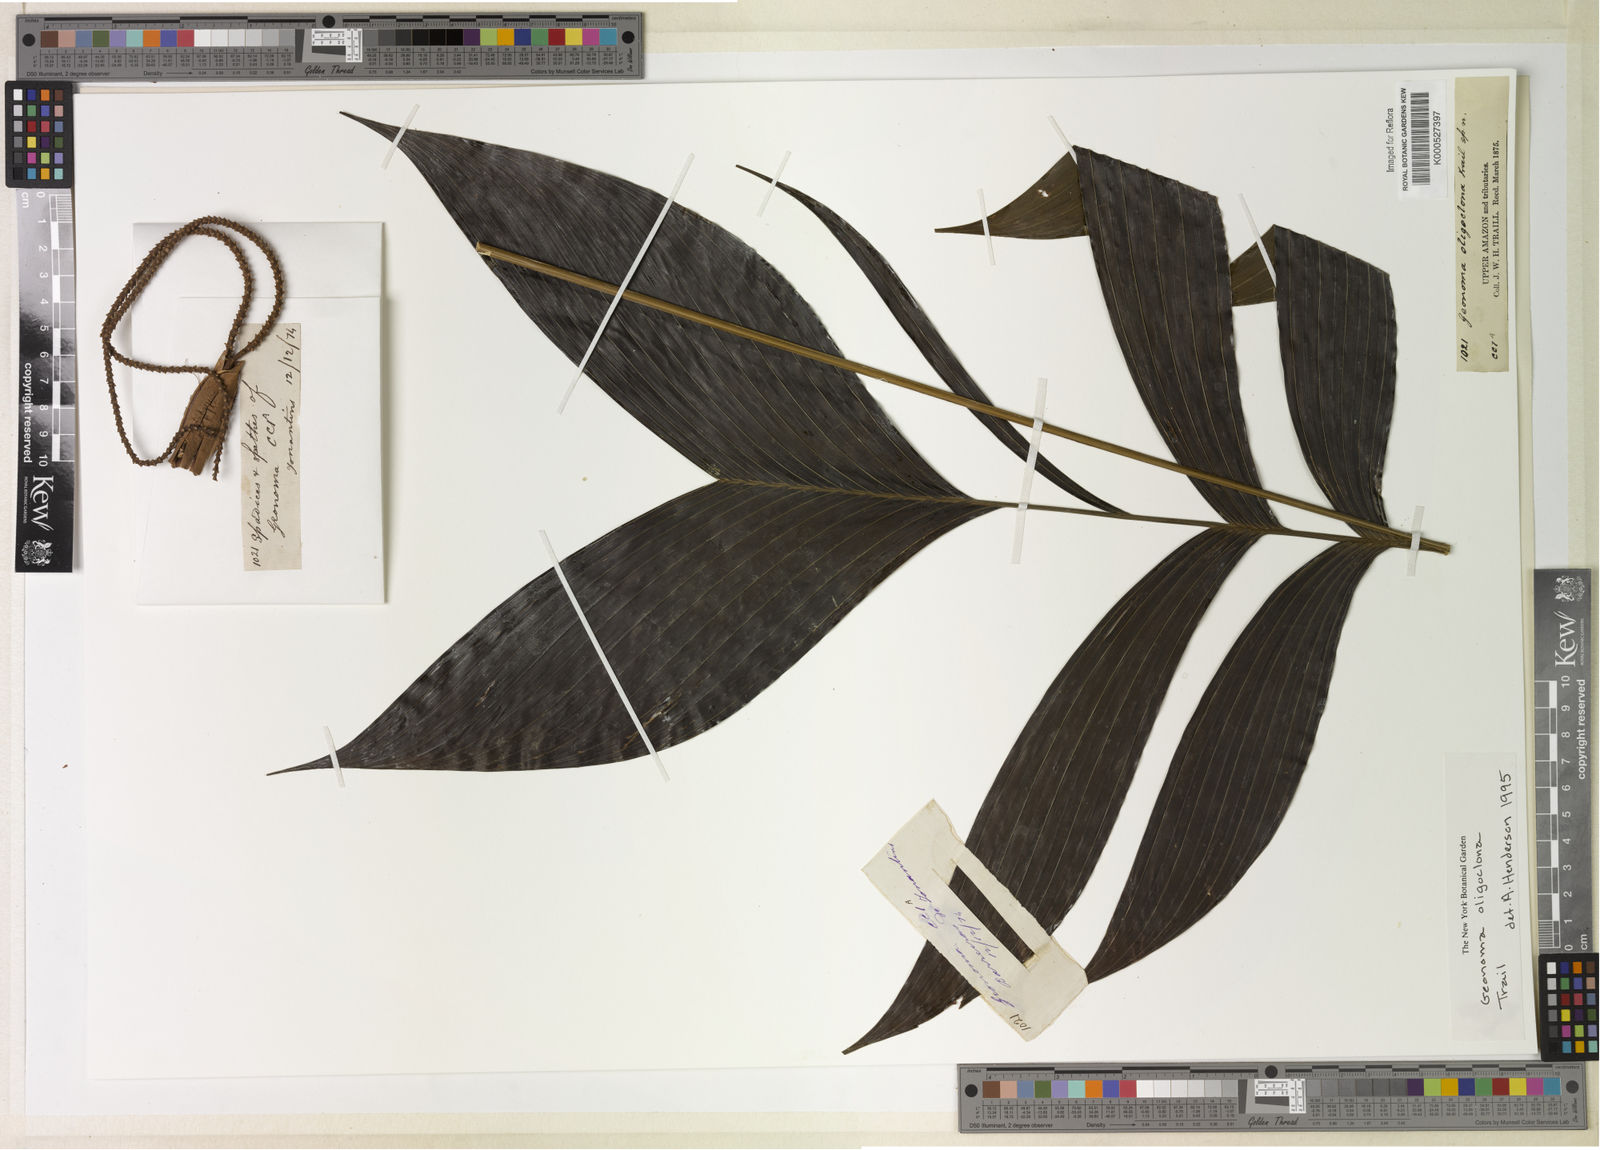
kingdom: Plantae
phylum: Tracheophyta
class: Liliopsida
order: Arecales
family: Arecaceae
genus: Geonoma
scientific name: Geonoma oligoclona
